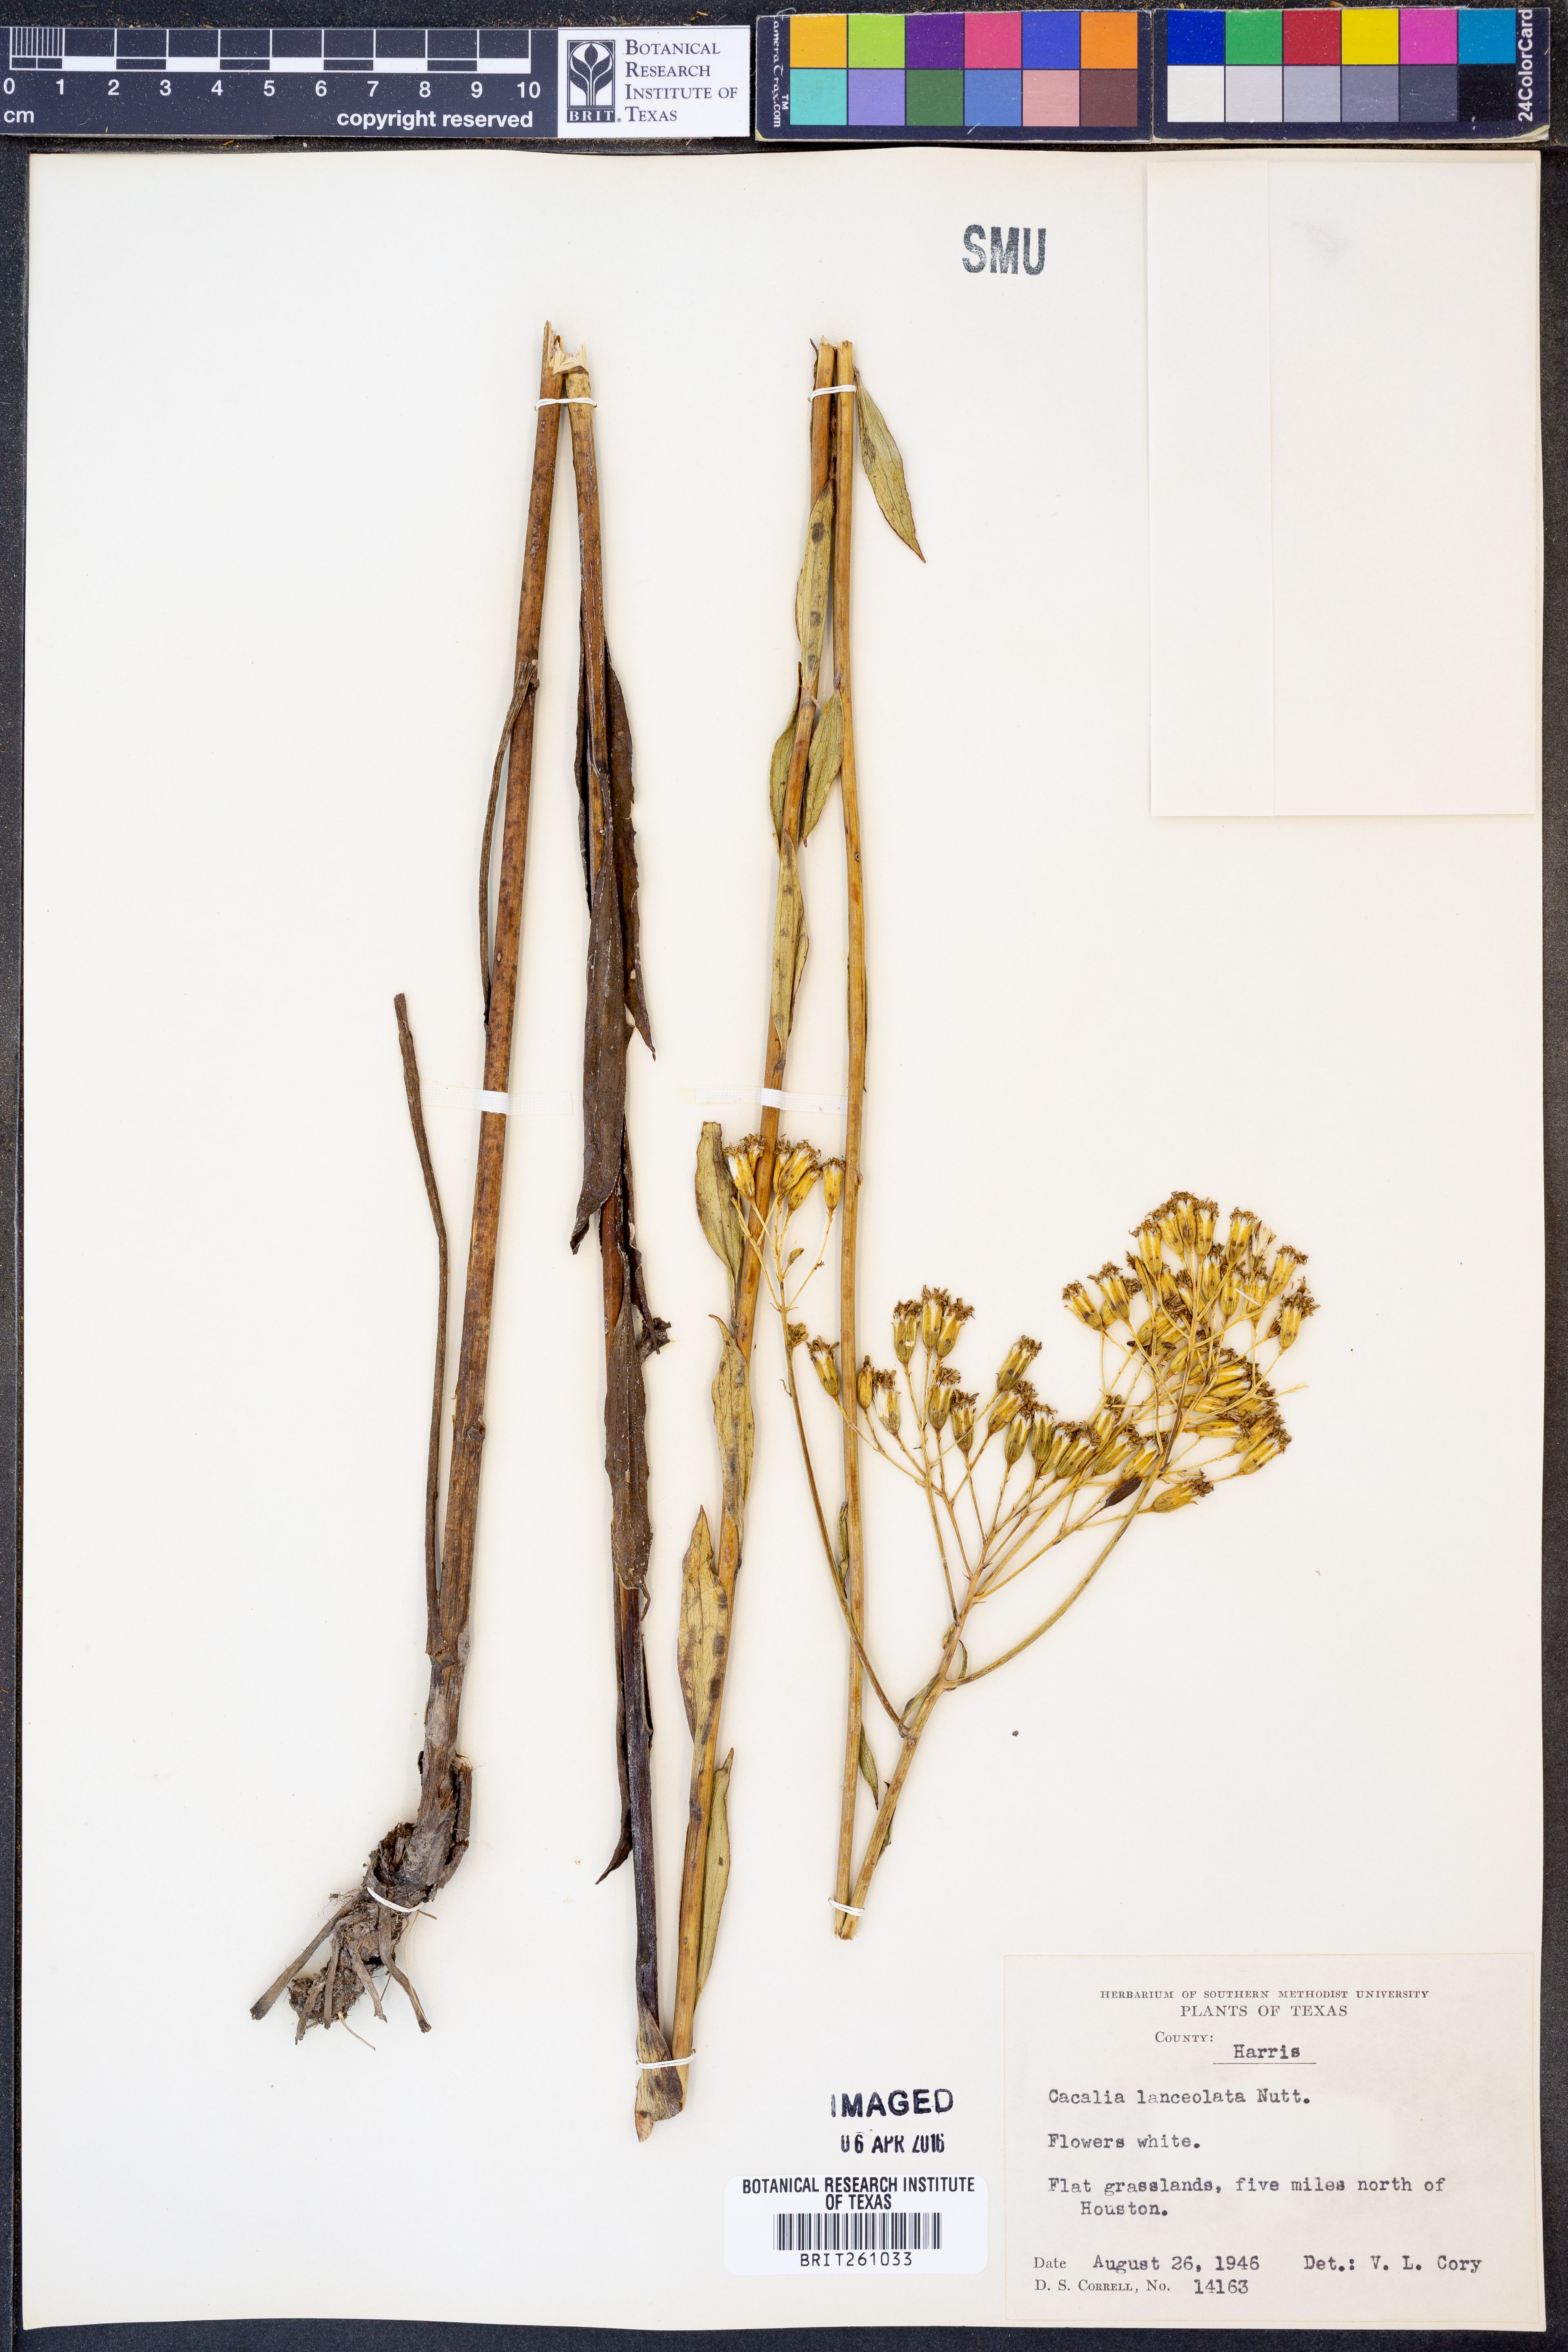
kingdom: Plantae
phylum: Tracheophyta
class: Magnoliopsida
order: Asterales
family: Asteraceae
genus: Arnoglossum
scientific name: Arnoglossum ovatum
